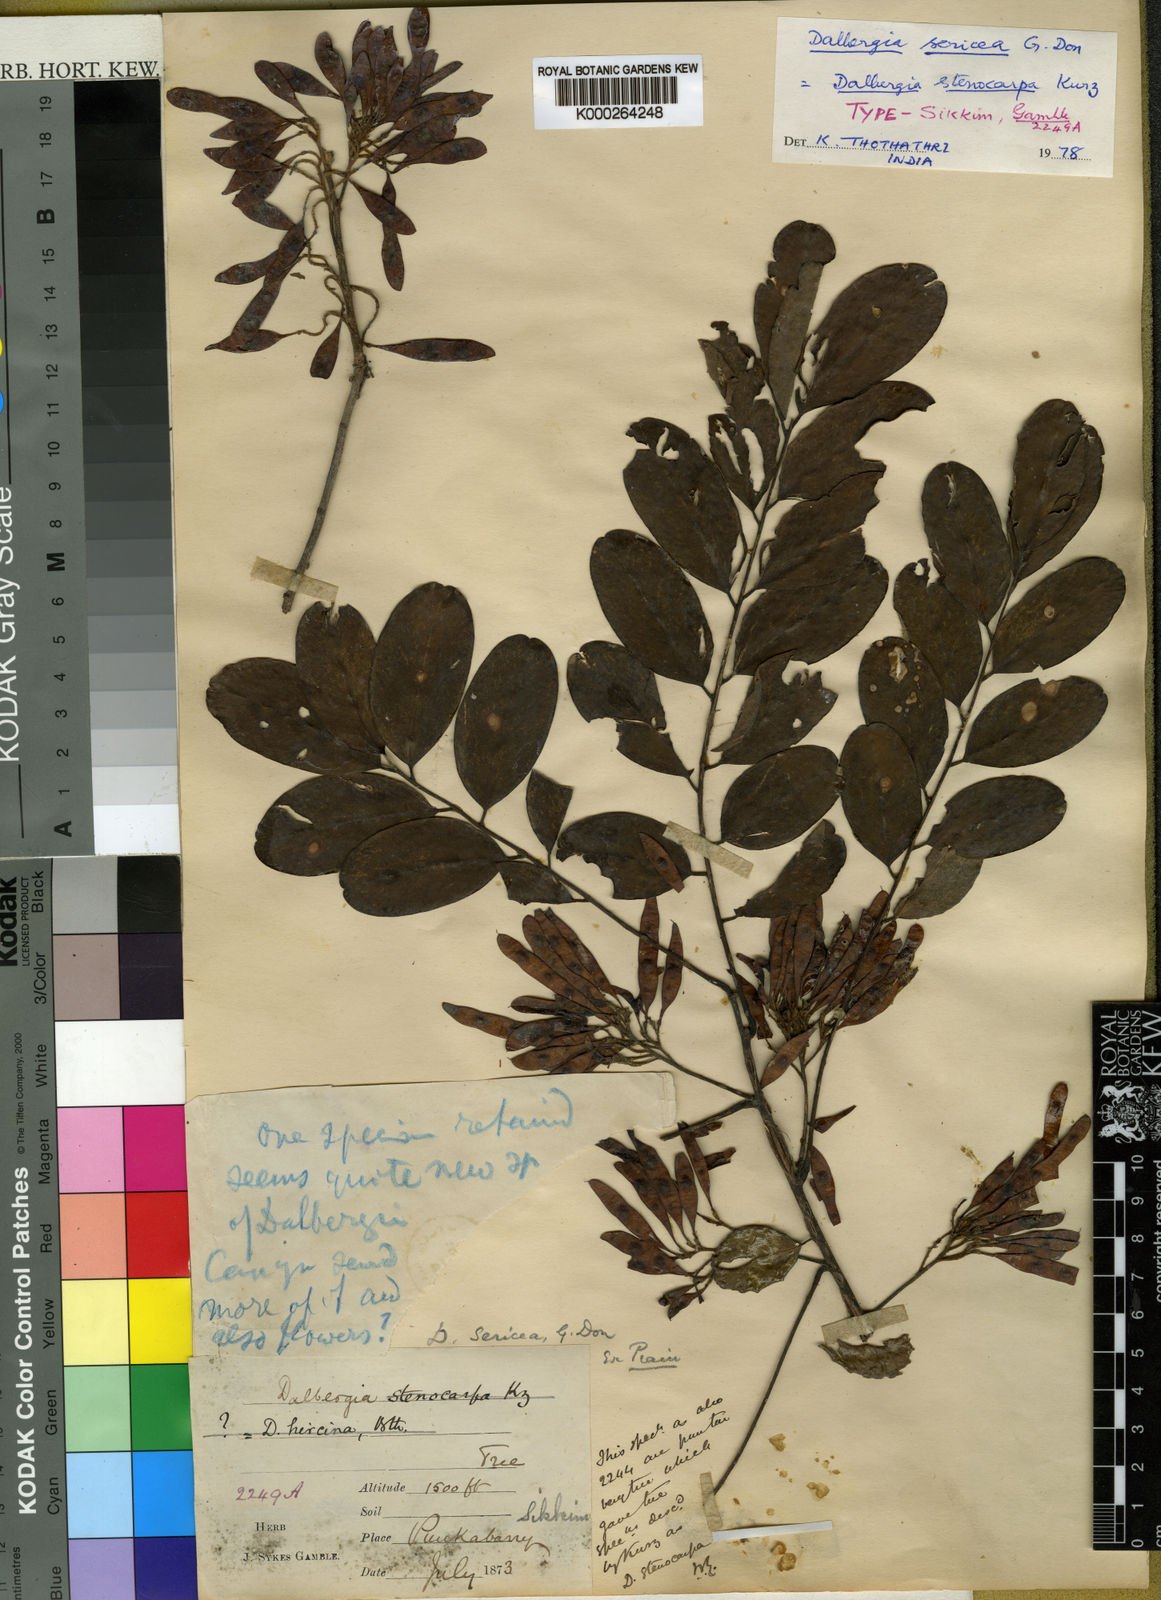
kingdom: Plantae
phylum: Tracheophyta
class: Magnoliopsida
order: Fabales
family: Fabaceae
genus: Dalbergia
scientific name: Dalbergia sericea
